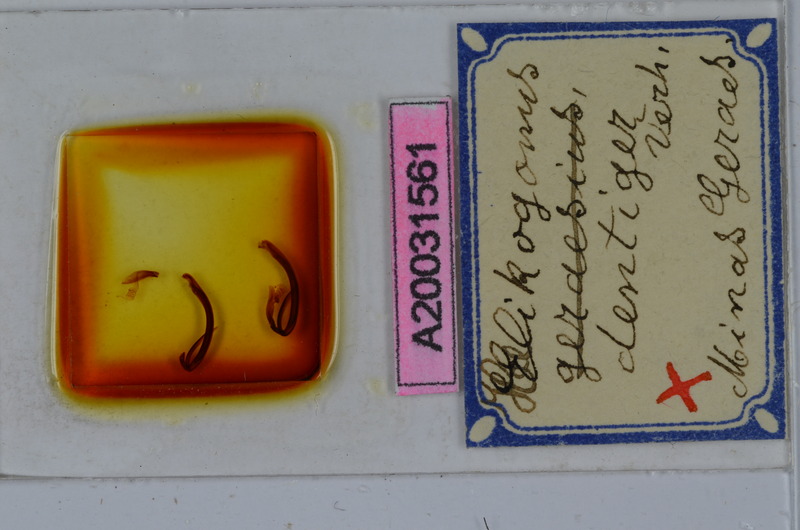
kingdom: Animalia
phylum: Arthropoda
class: Diplopoda
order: Spirostreptida
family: Spirostreptidae
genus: Helicogonus
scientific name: Helicogonus dentiger
